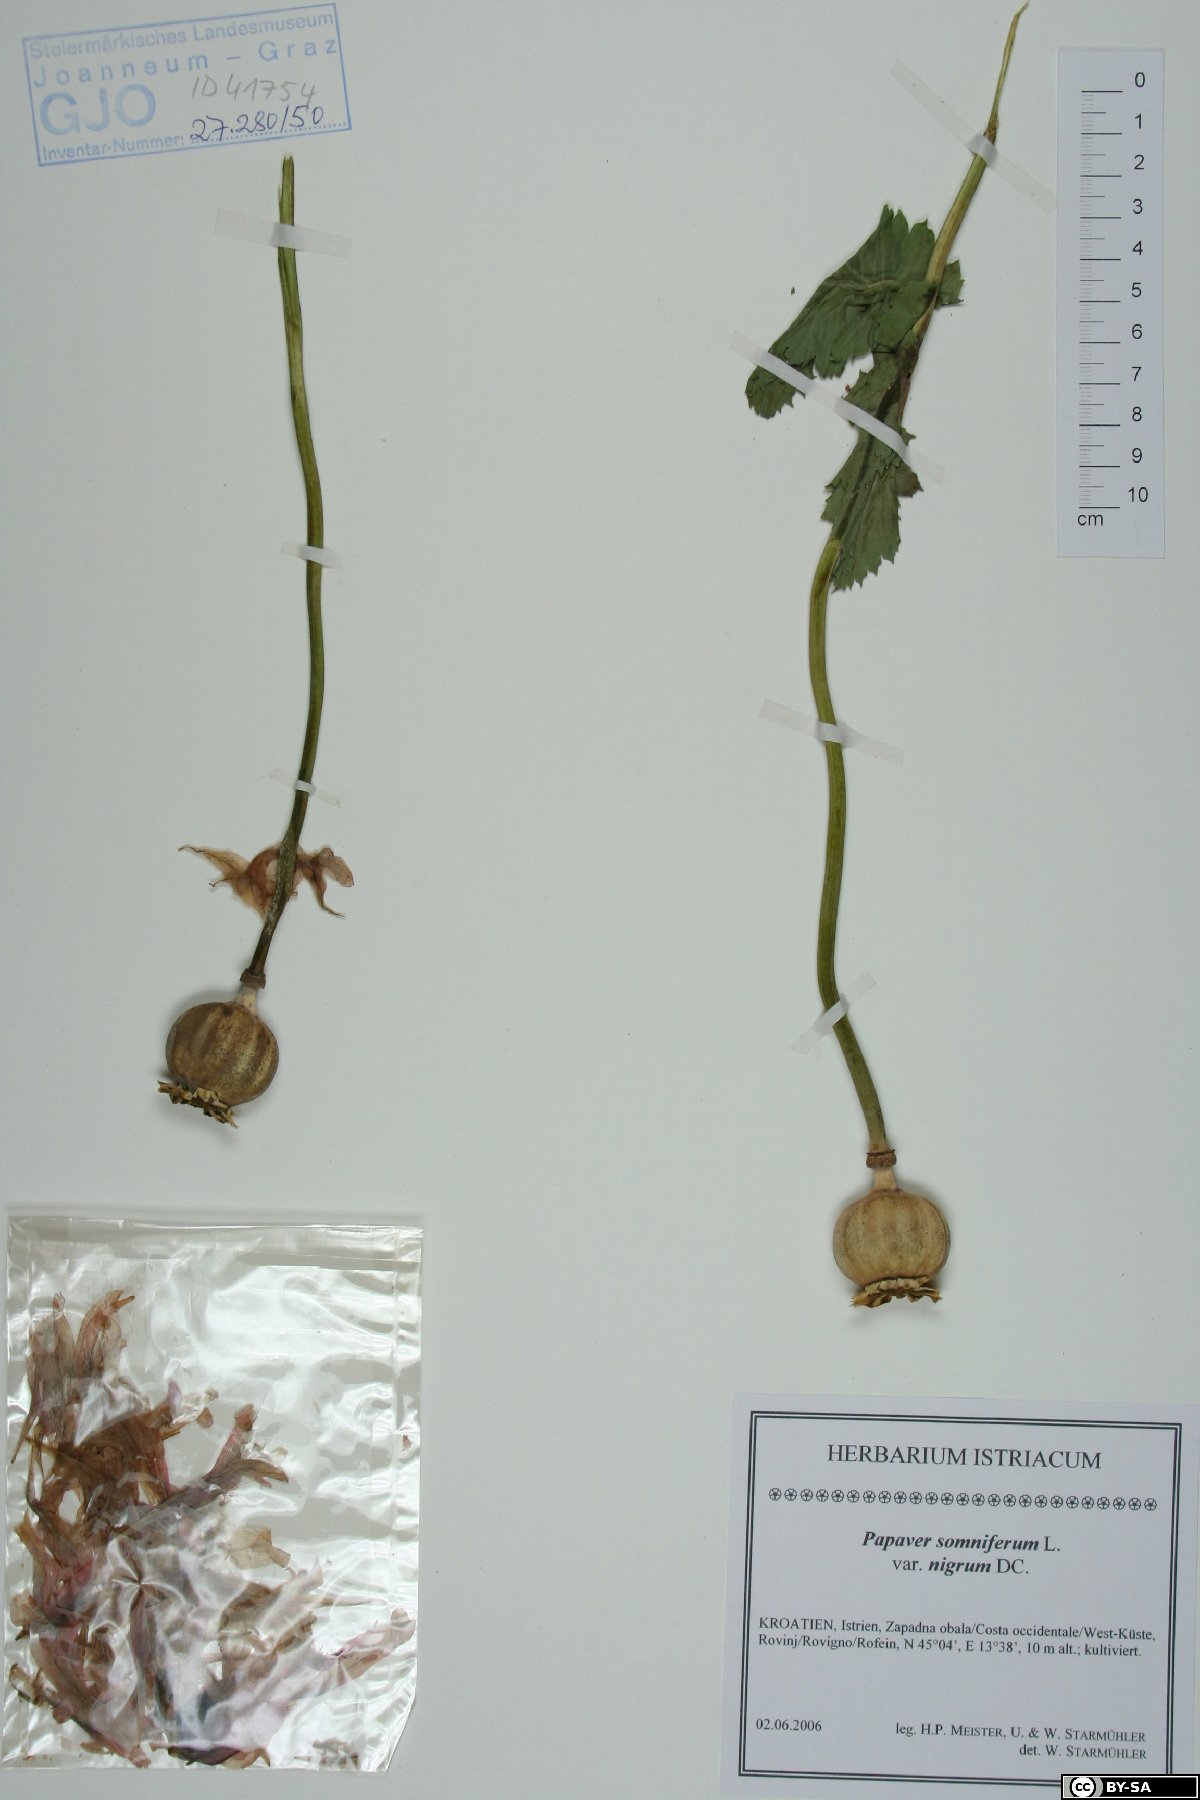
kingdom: Plantae
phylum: Tracheophyta
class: Magnoliopsida
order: Ranunculales
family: Papaveraceae
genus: Papaver
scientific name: Papaver somniferum
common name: Opium poppy
